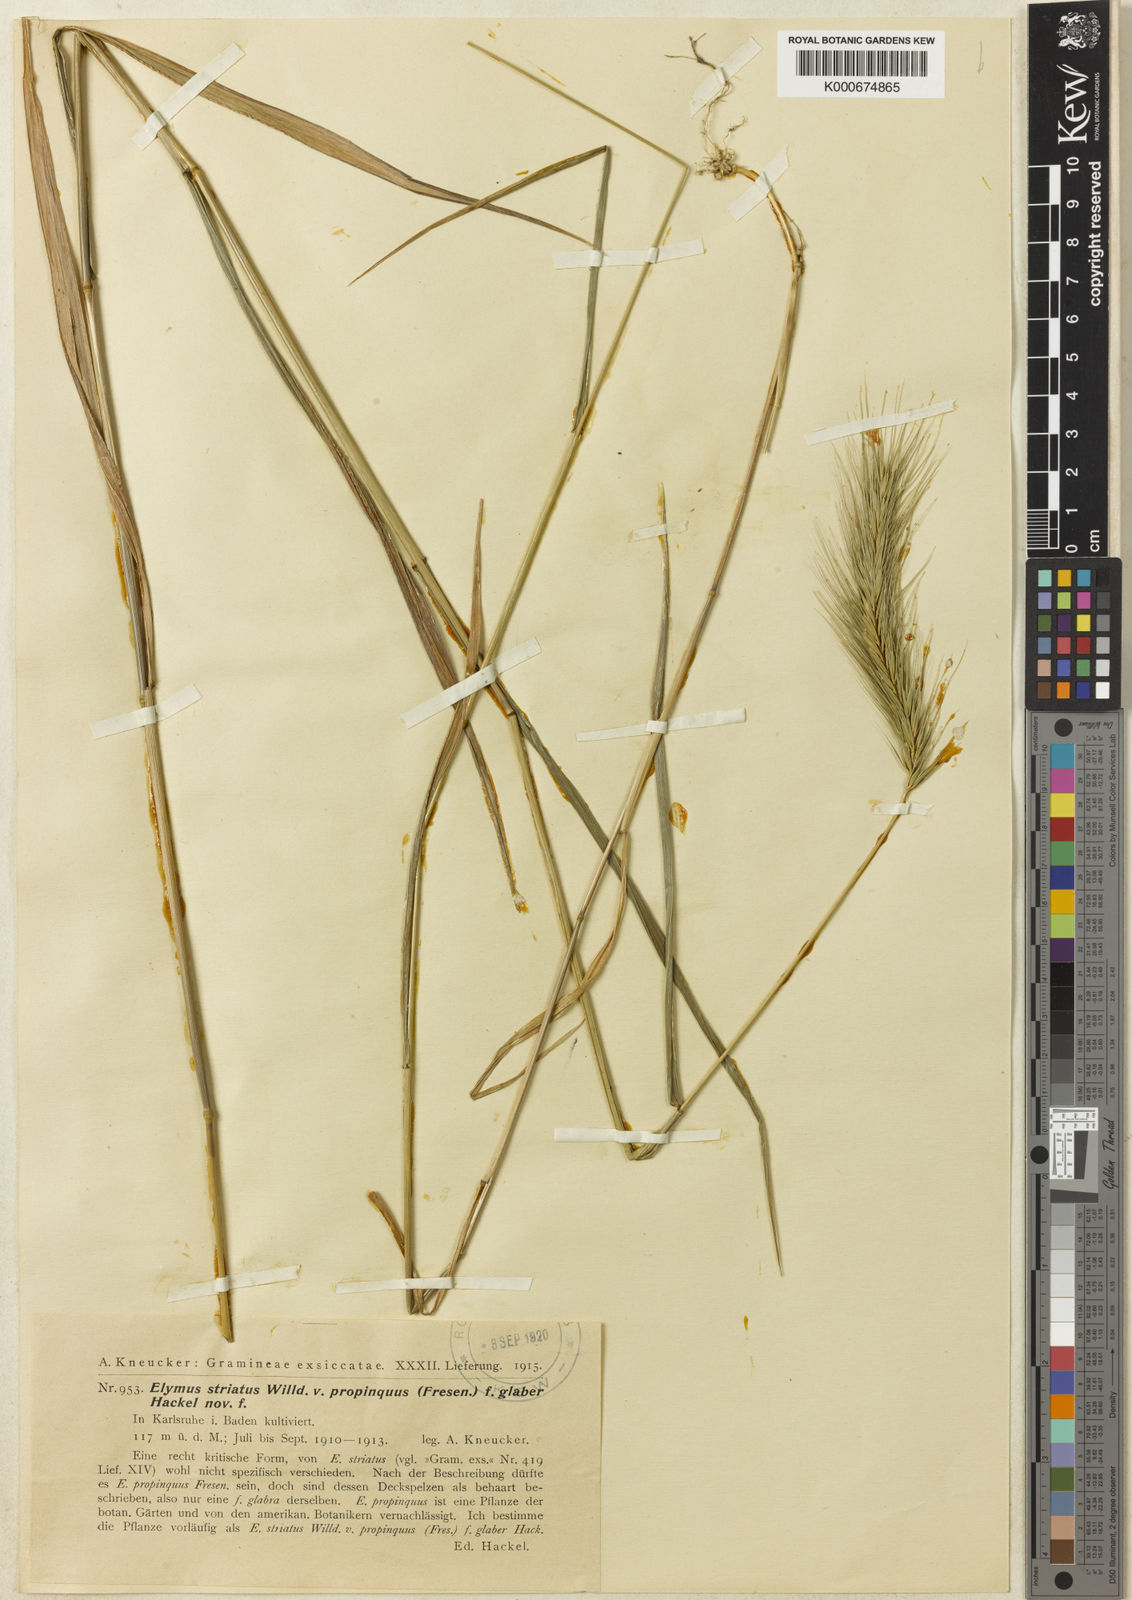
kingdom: Plantae
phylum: Tracheophyta
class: Liliopsida
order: Poales
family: Poaceae
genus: Elymus
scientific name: Elymus
